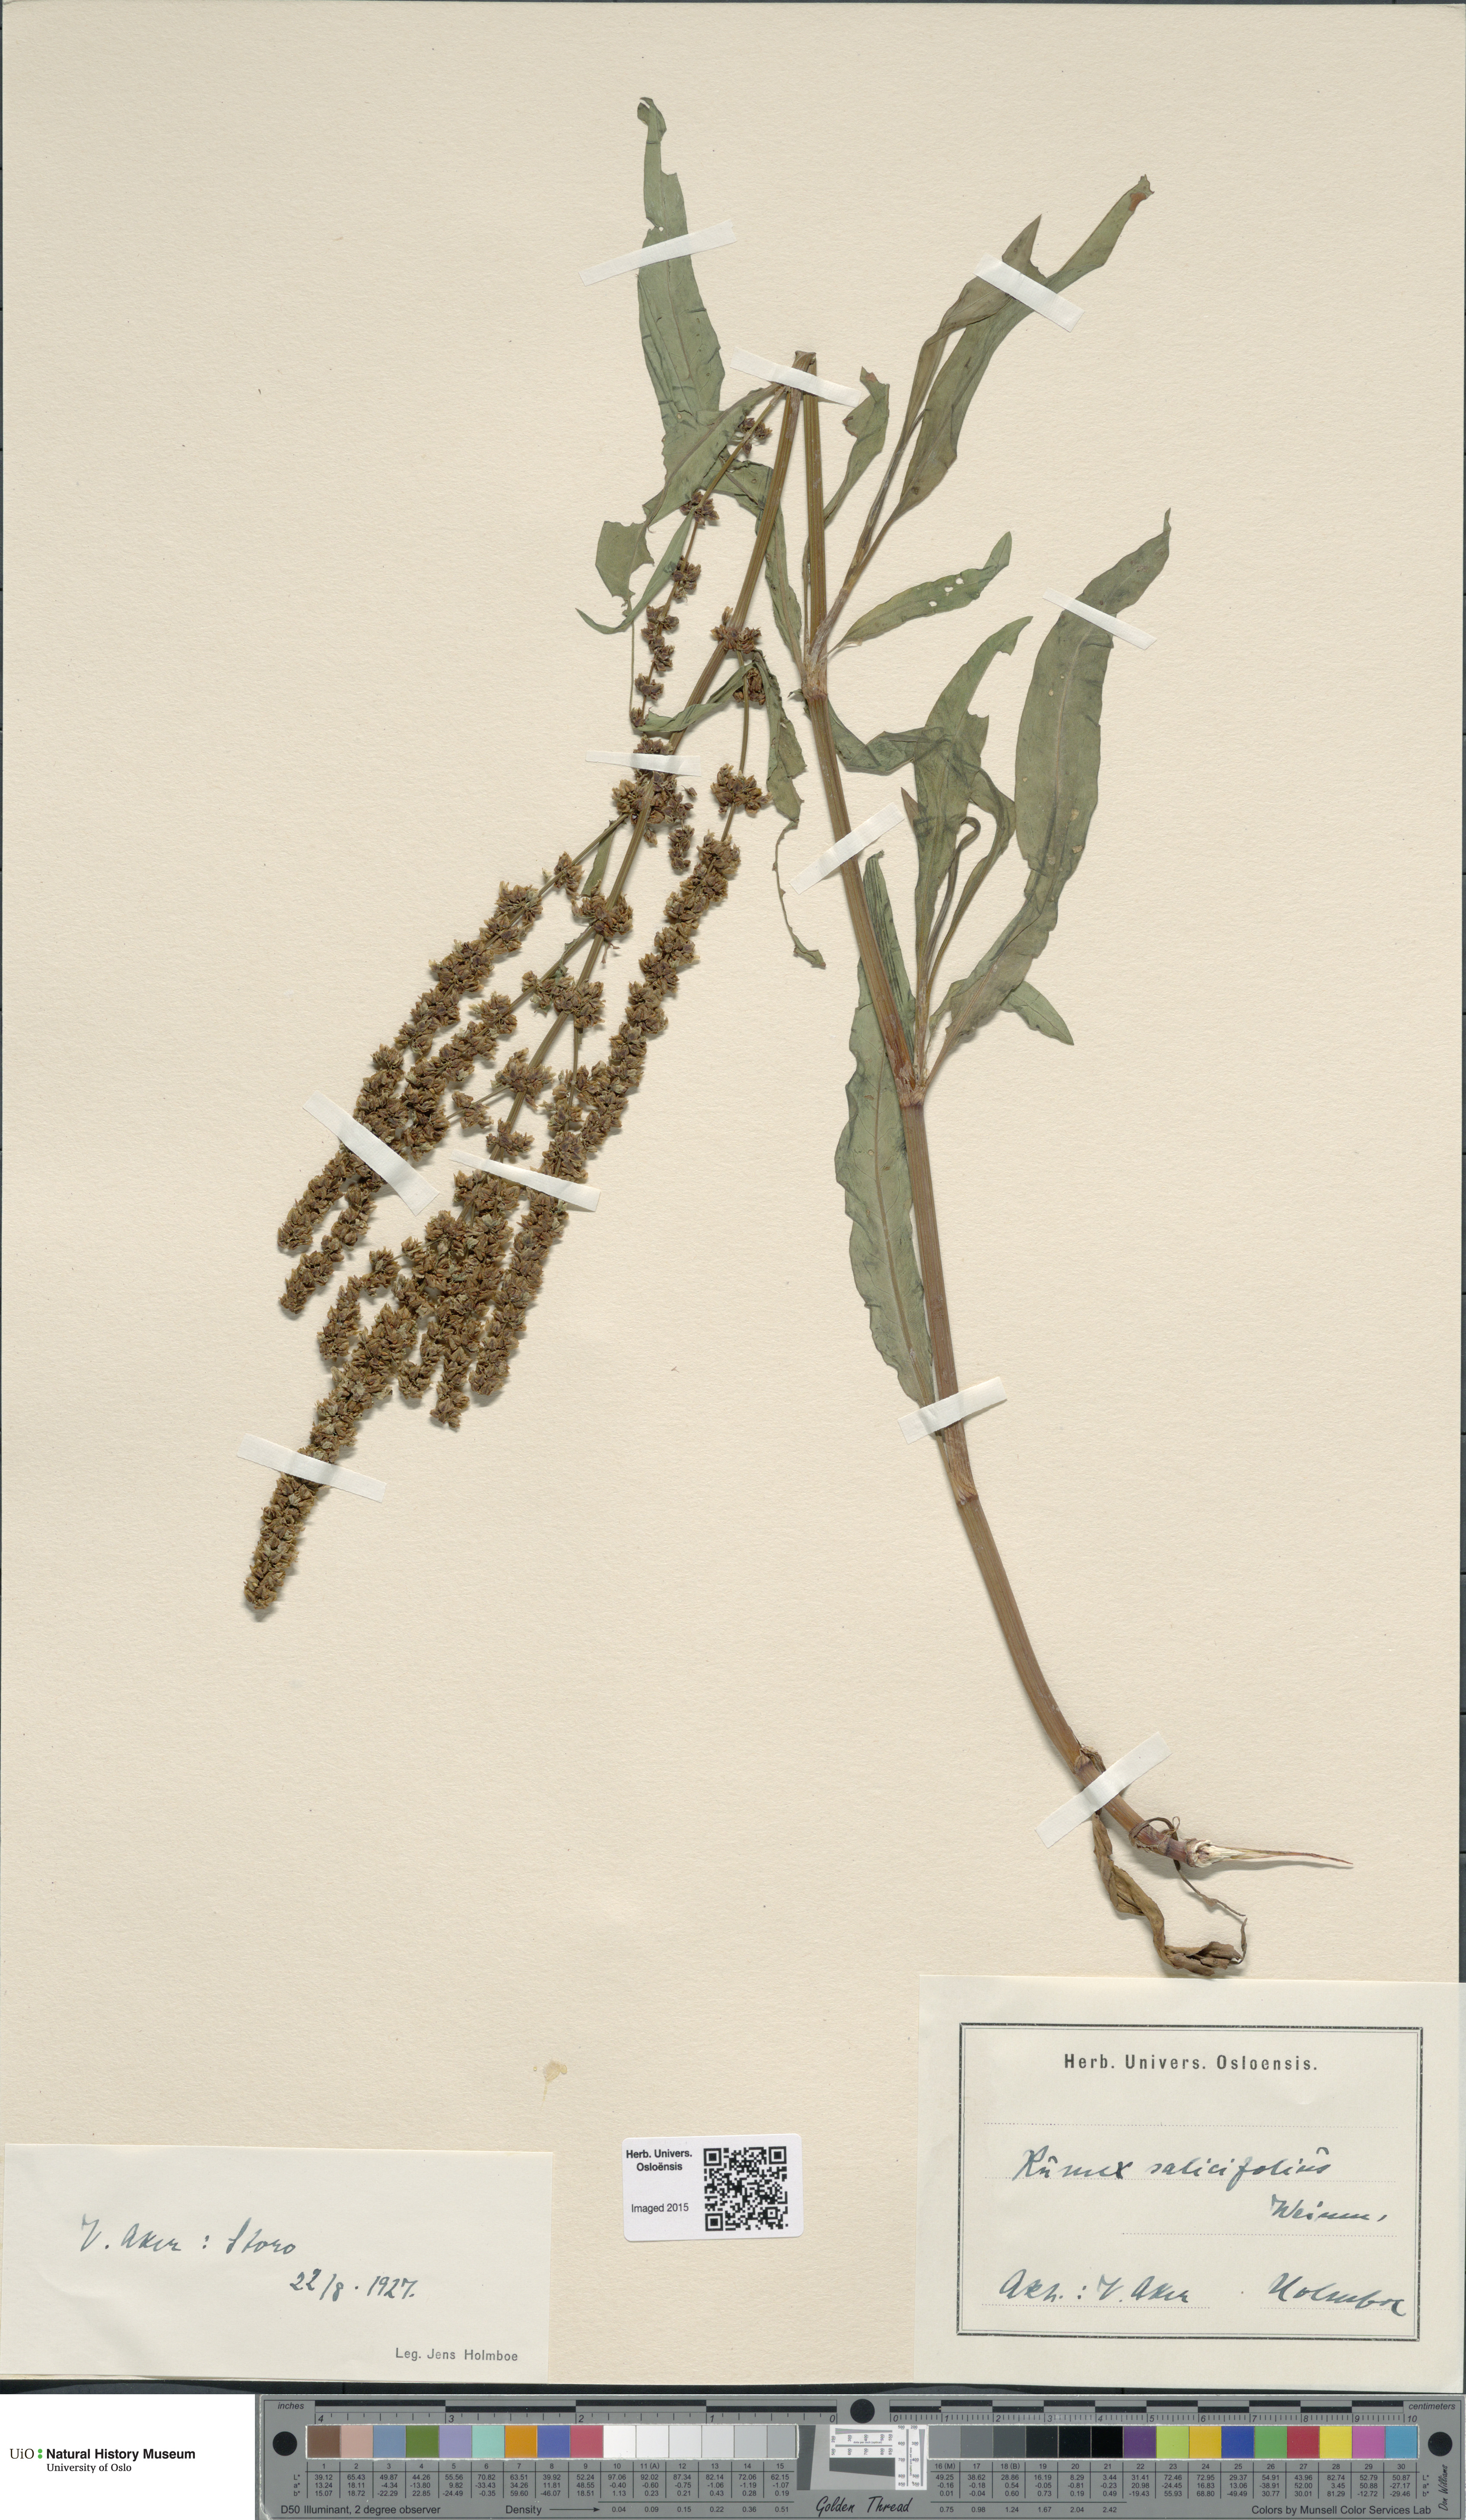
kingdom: Plantae
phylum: Tracheophyta
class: Magnoliopsida
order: Caryophyllales
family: Polygonaceae
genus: Rumex
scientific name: Rumex triangulivalvis
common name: Triangular-valve dock
